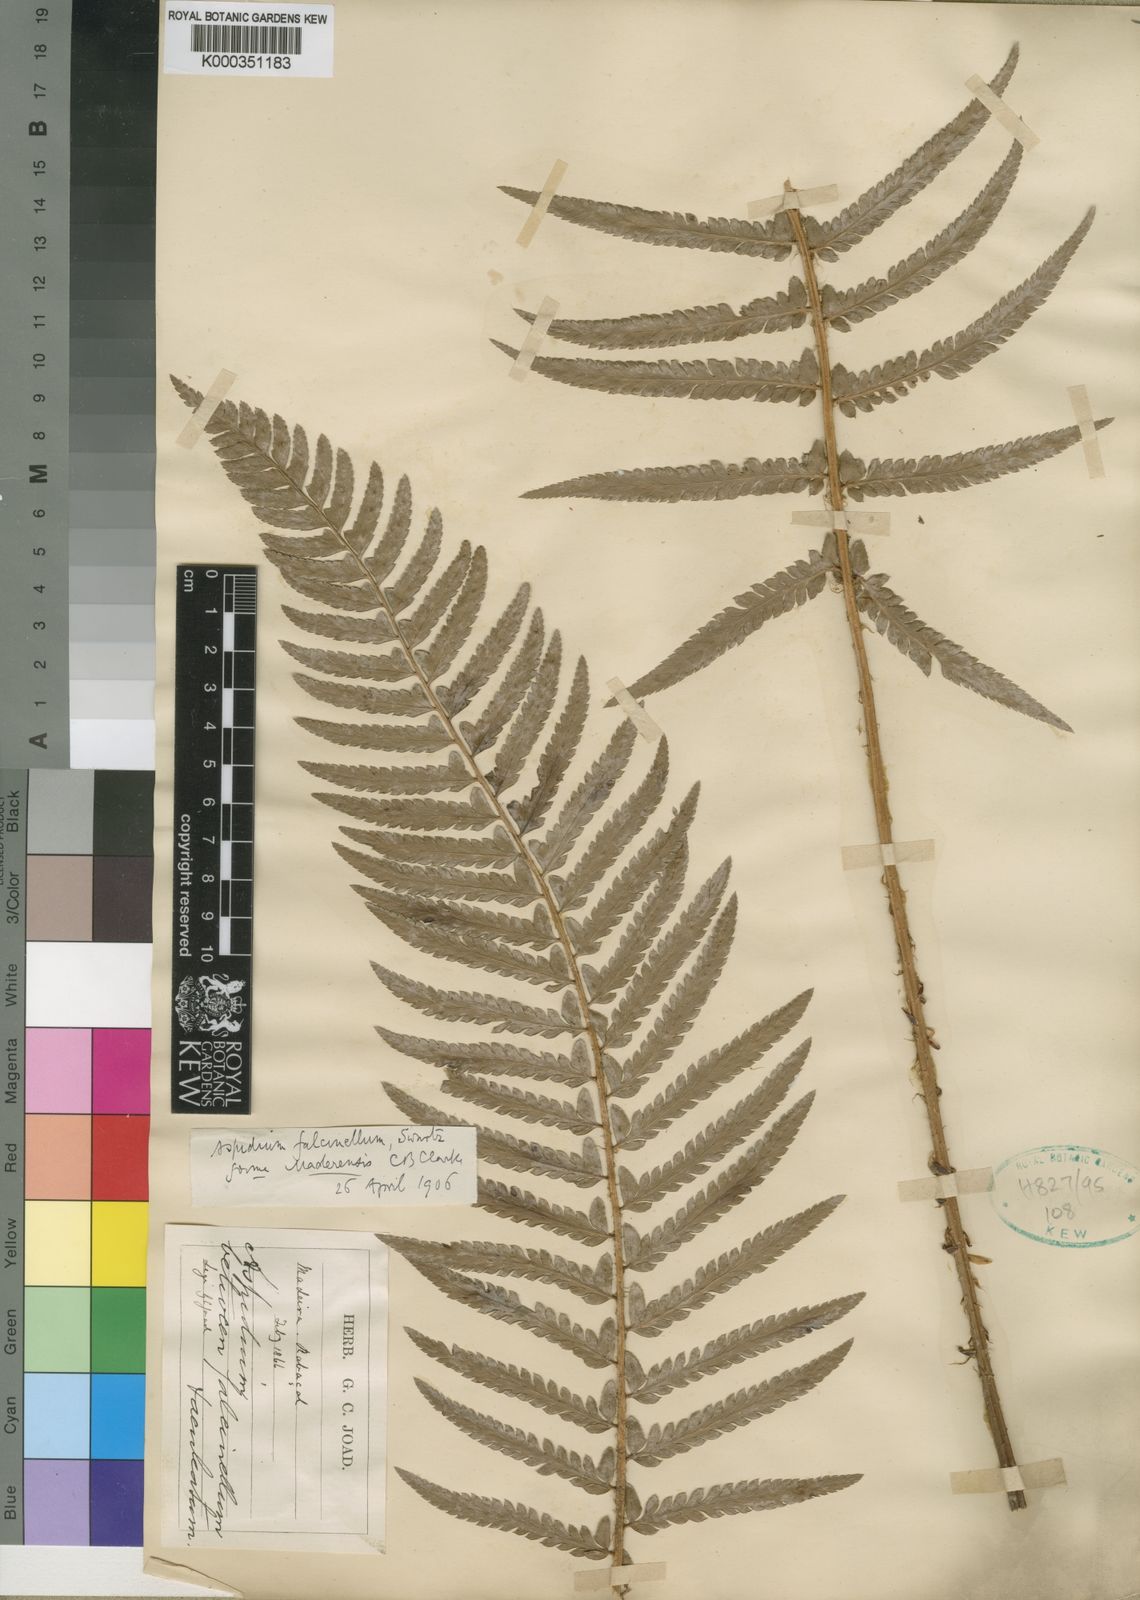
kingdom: Plantae
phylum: Tracheophyta
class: Polypodiopsida
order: Polypodiales
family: Dryopteridaceae
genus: Polystichum
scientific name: Polystichum maderense
